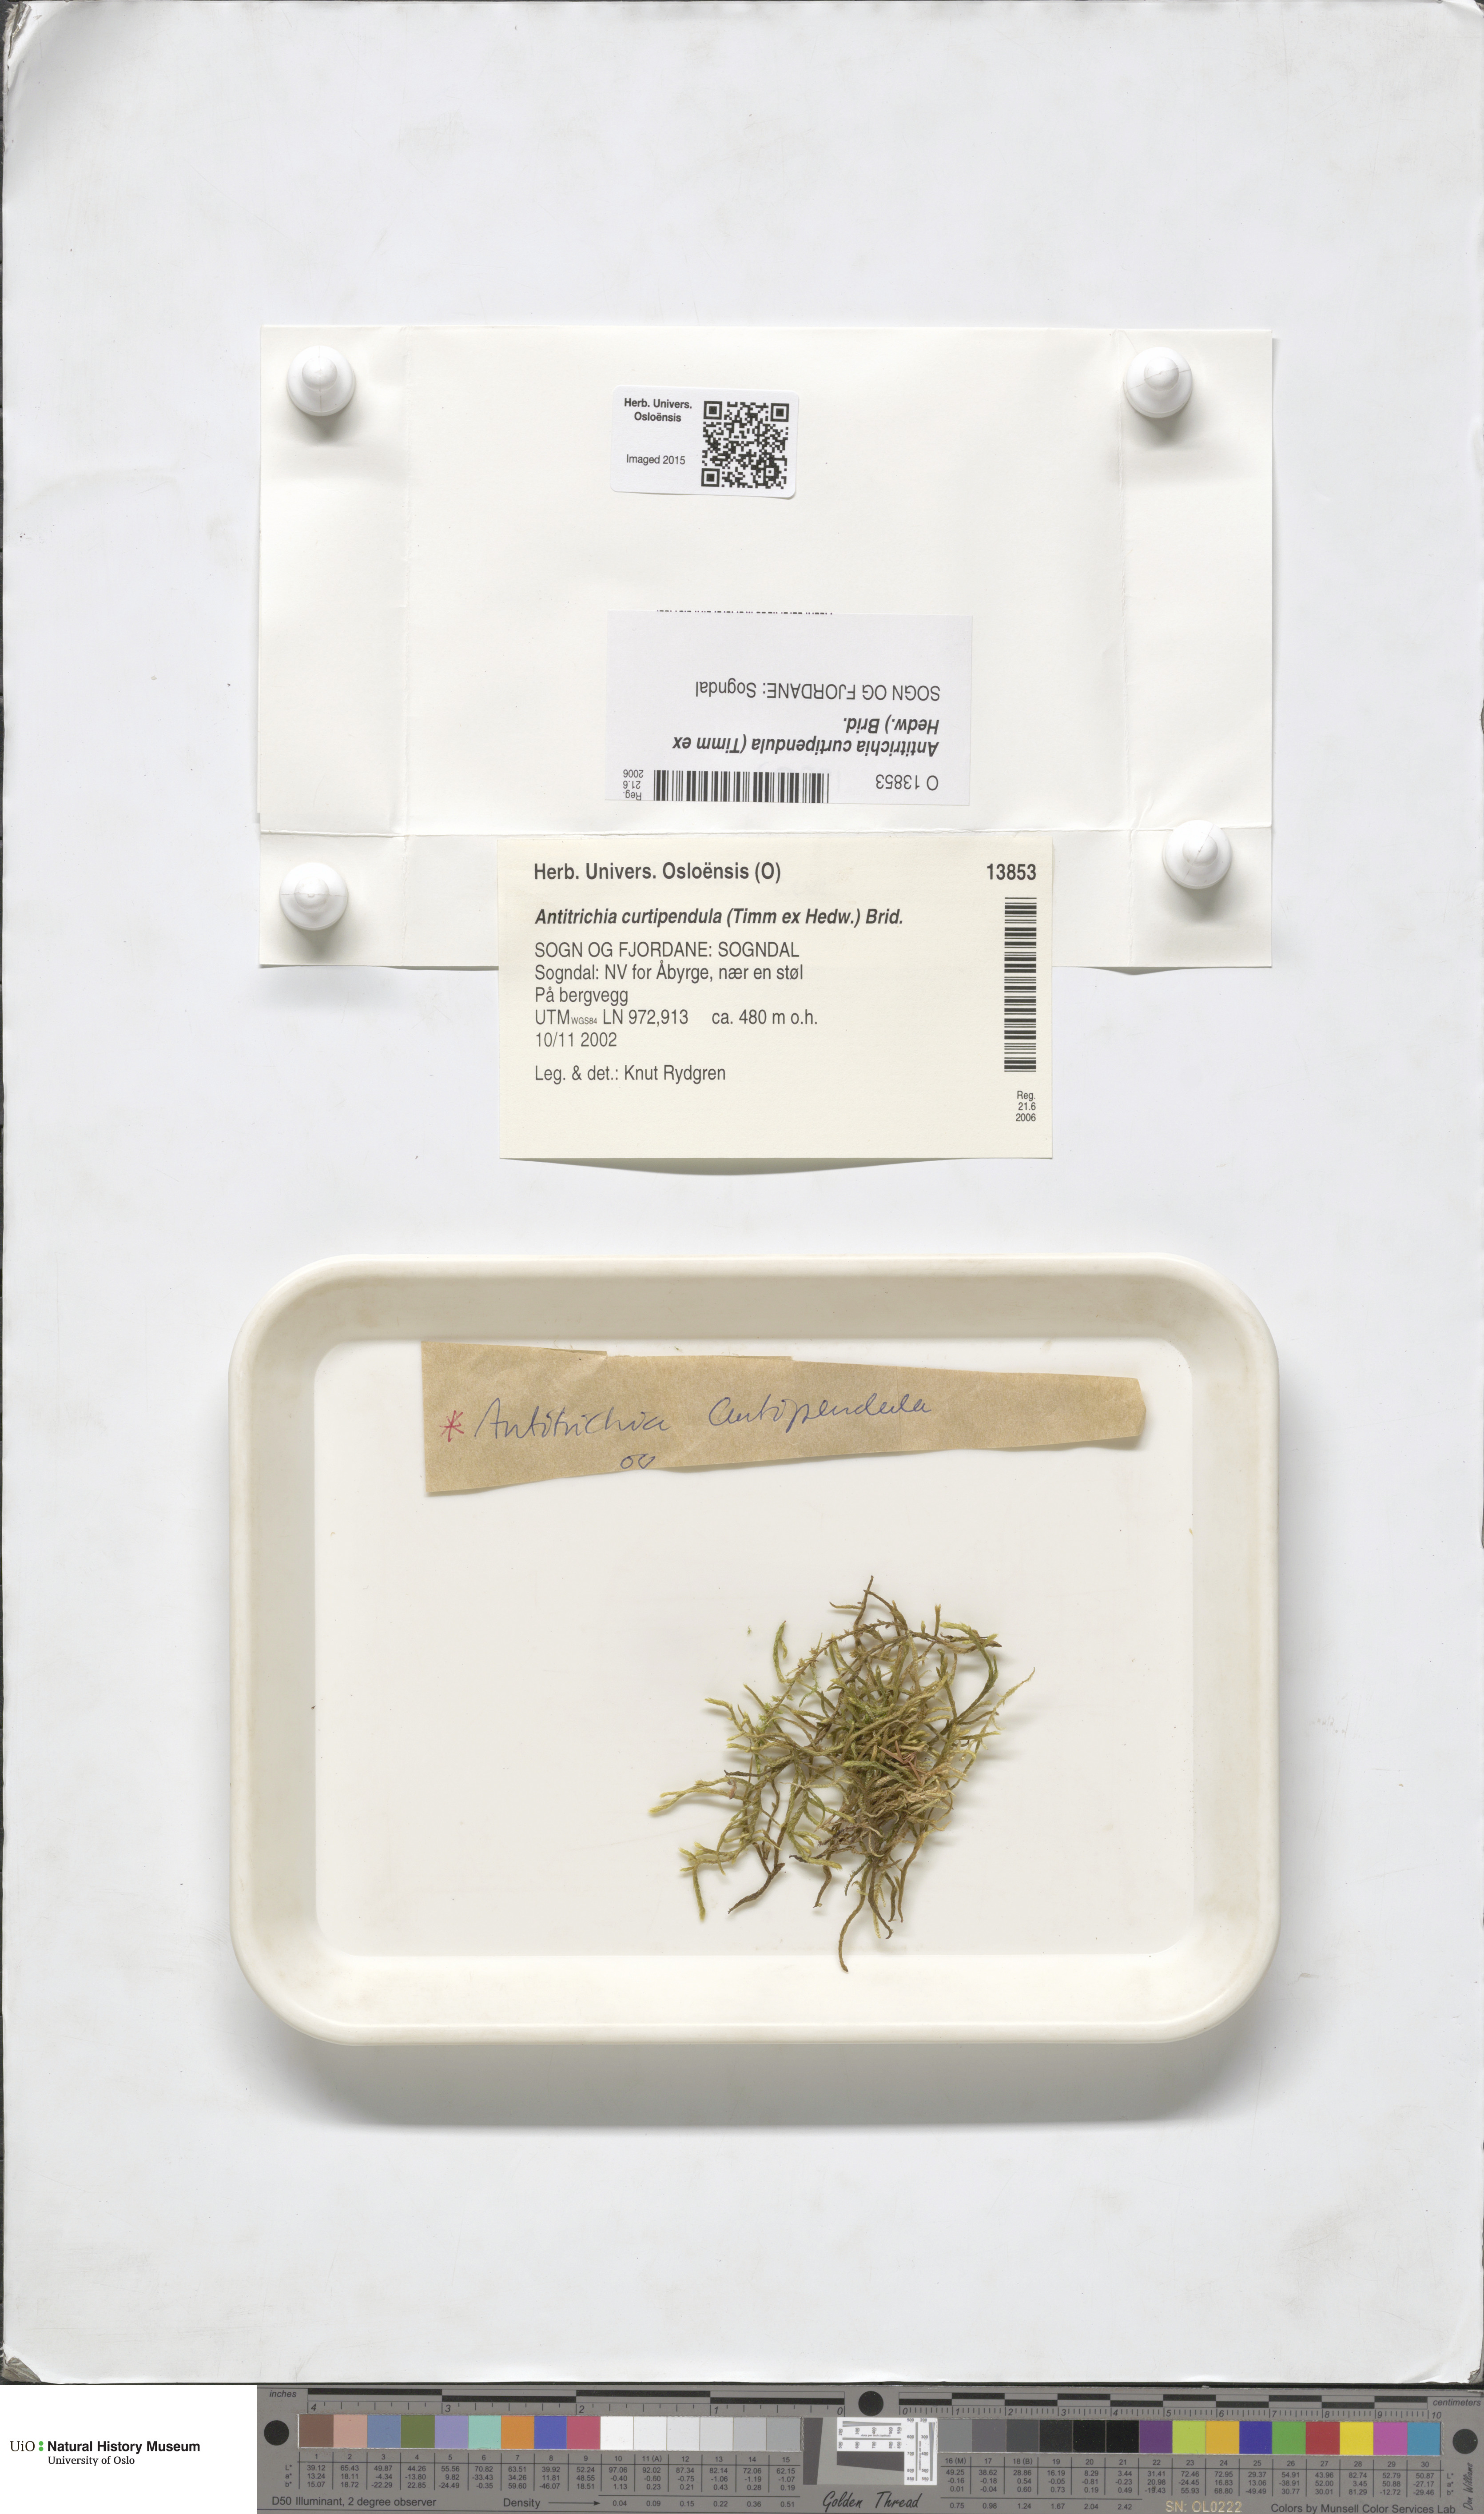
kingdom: Plantae
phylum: Bryophyta
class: Bryopsida
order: Hypnales
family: Antitrichiaceae
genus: Antitrichia
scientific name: Antitrichia curtipendula
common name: Pendulous wing-moss
